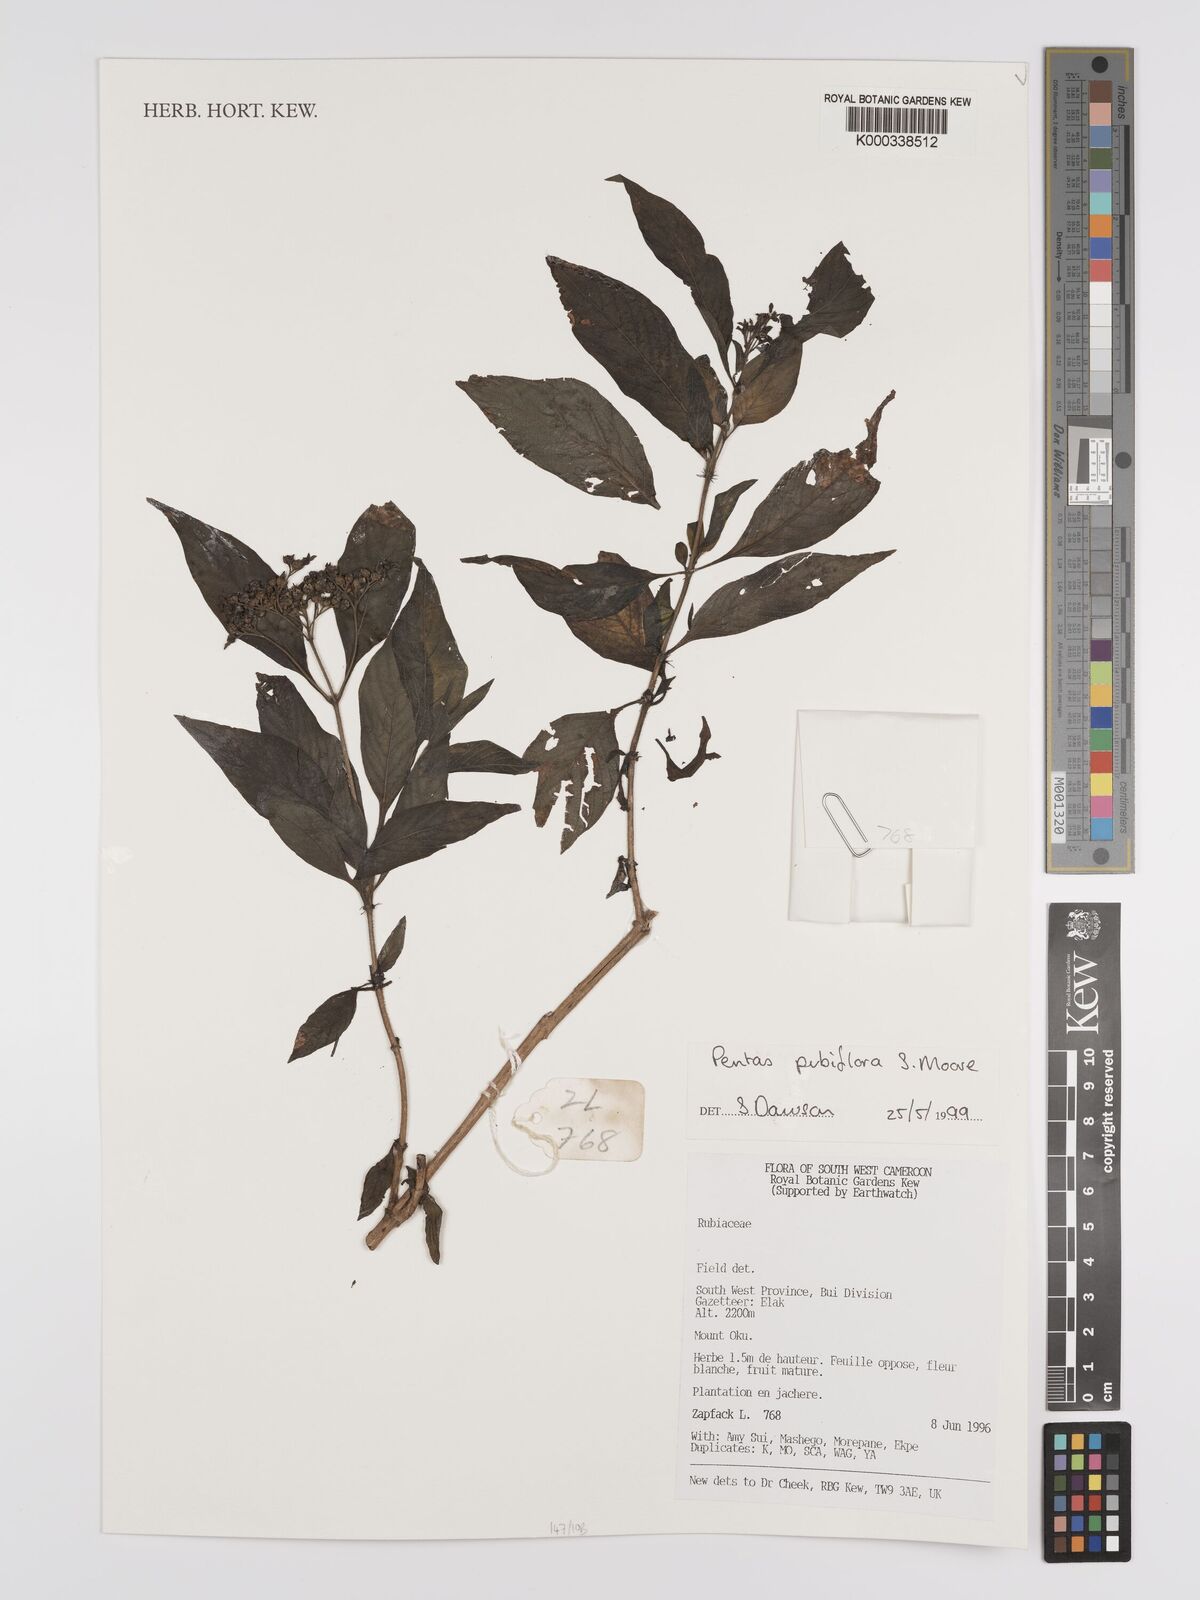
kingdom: Plantae
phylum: Tracheophyta
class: Magnoliopsida
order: Gentianales
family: Rubiaceae
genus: Pentas
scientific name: Pentas pubiflora
